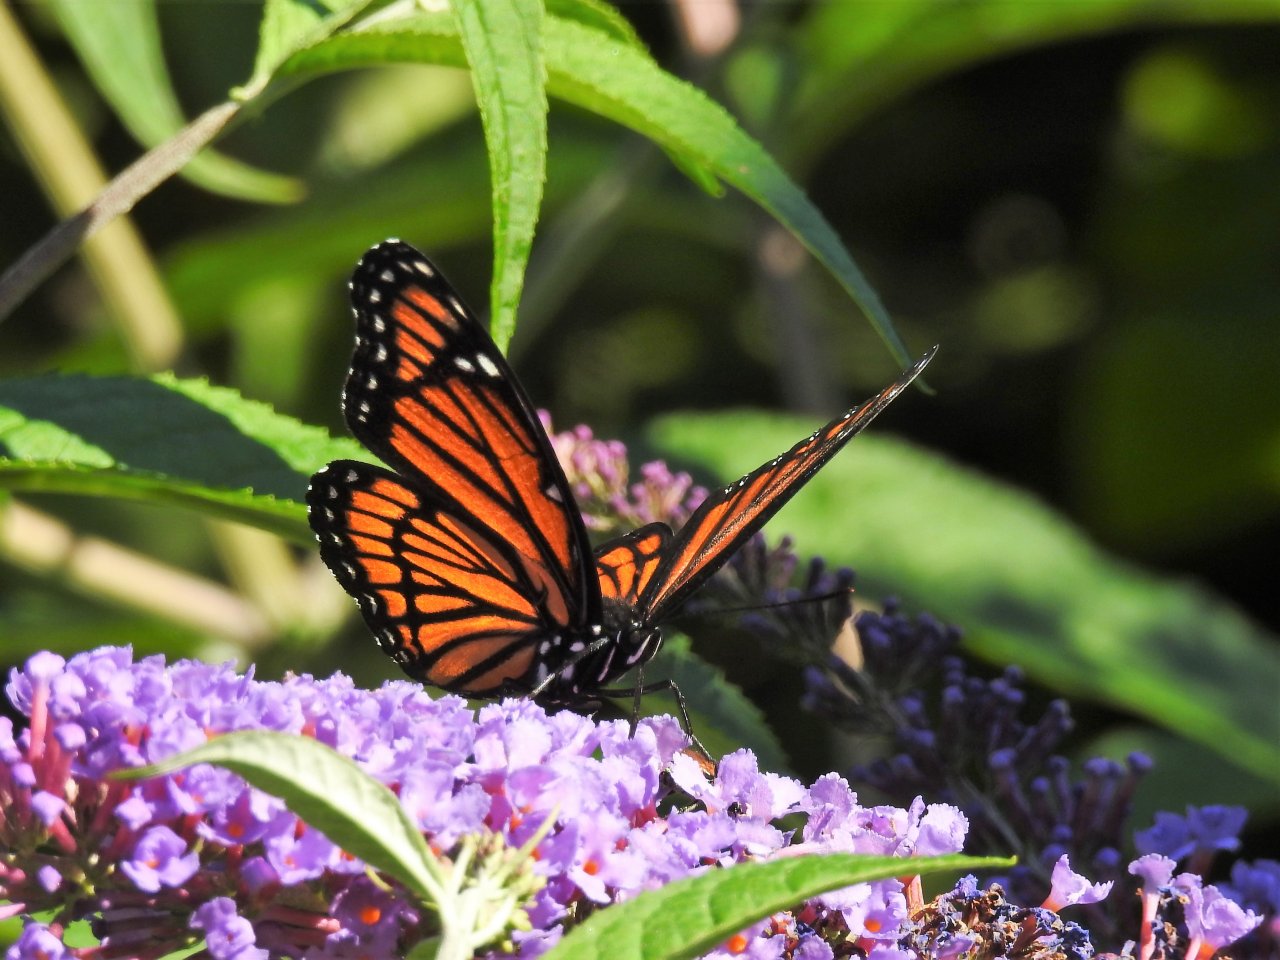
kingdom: Animalia
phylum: Arthropoda
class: Insecta
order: Lepidoptera
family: Nymphalidae
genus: Limenitis
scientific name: Limenitis archippus
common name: Viceroy
